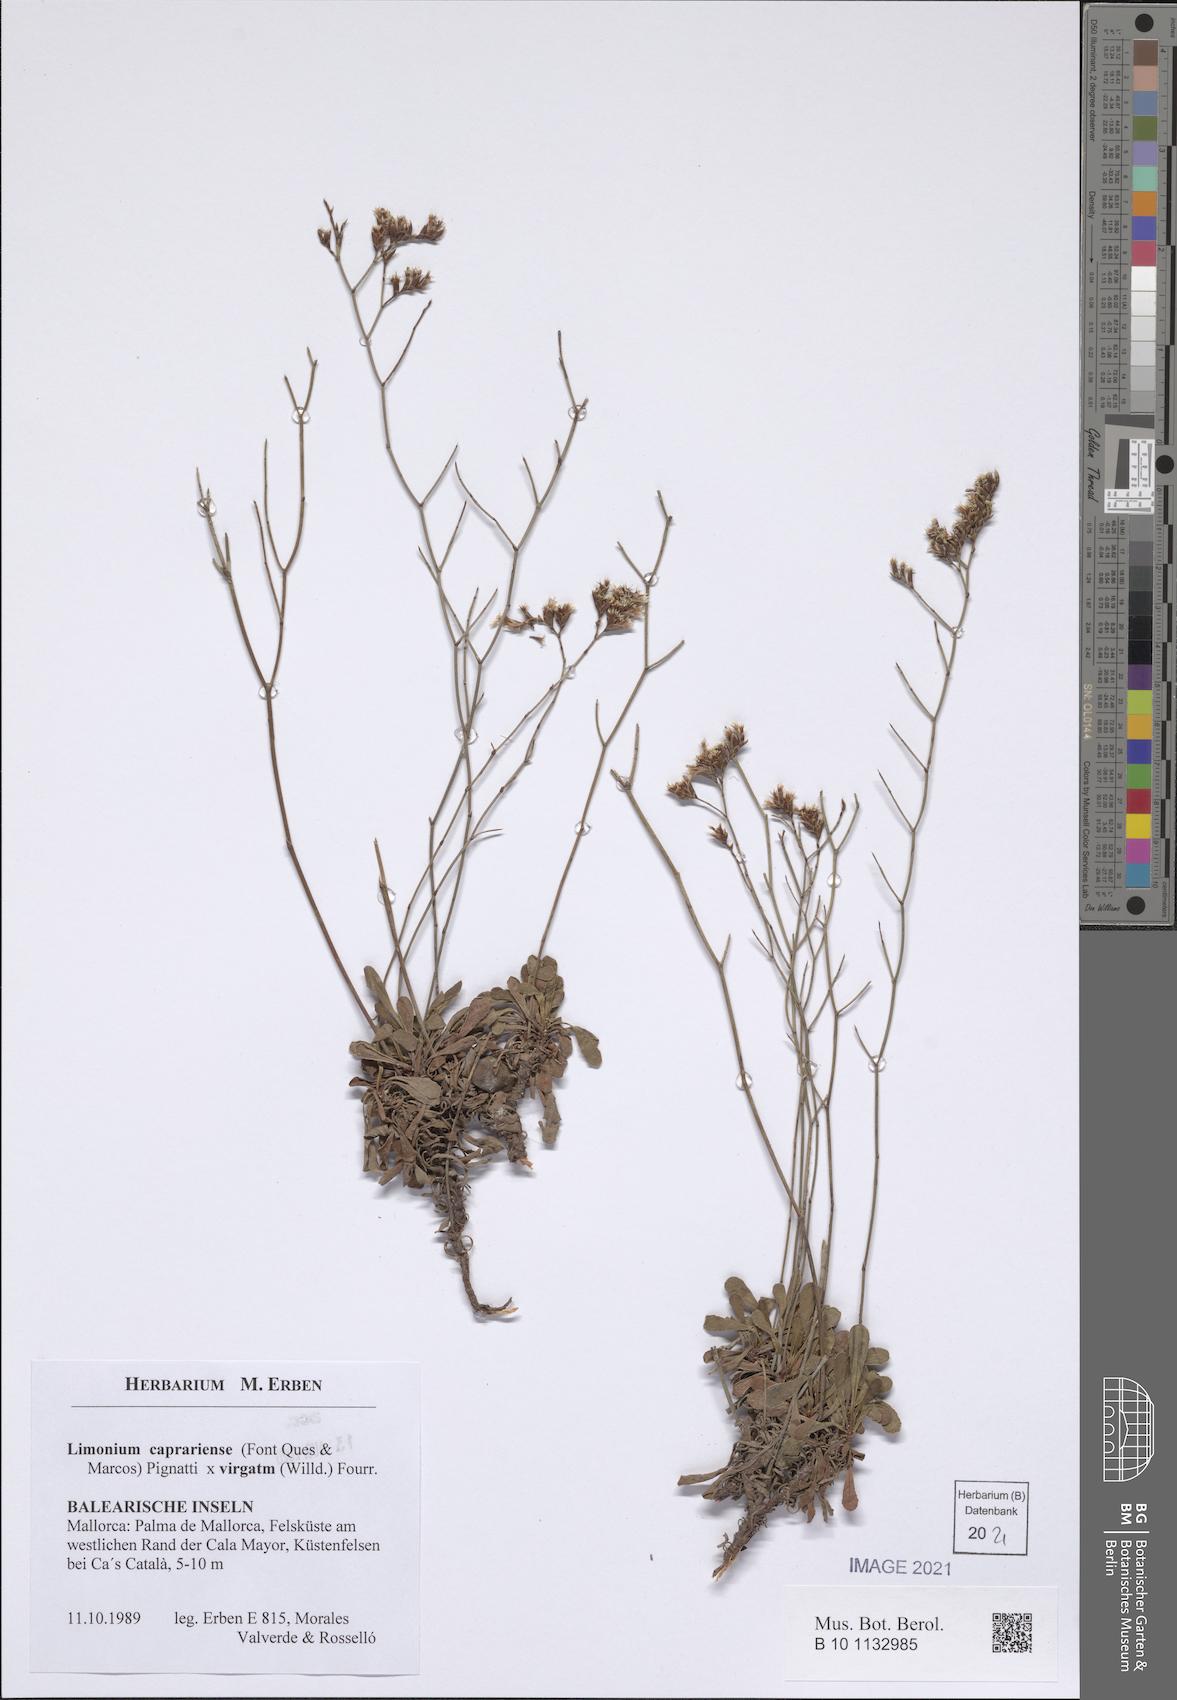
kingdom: Plantae
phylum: Tracheophyta
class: Magnoliopsida
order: Caryophyllales
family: Plumbaginaceae
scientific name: Plumbaginaceae
